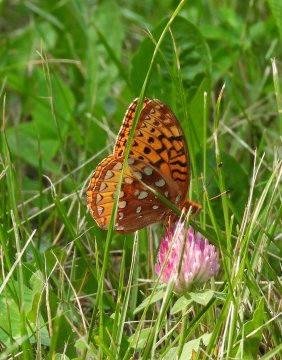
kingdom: Animalia
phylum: Arthropoda
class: Insecta
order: Lepidoptera
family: Nymphalidae
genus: Speyeria
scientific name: Speyeria cybele
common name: Great Spangled Fritillary
